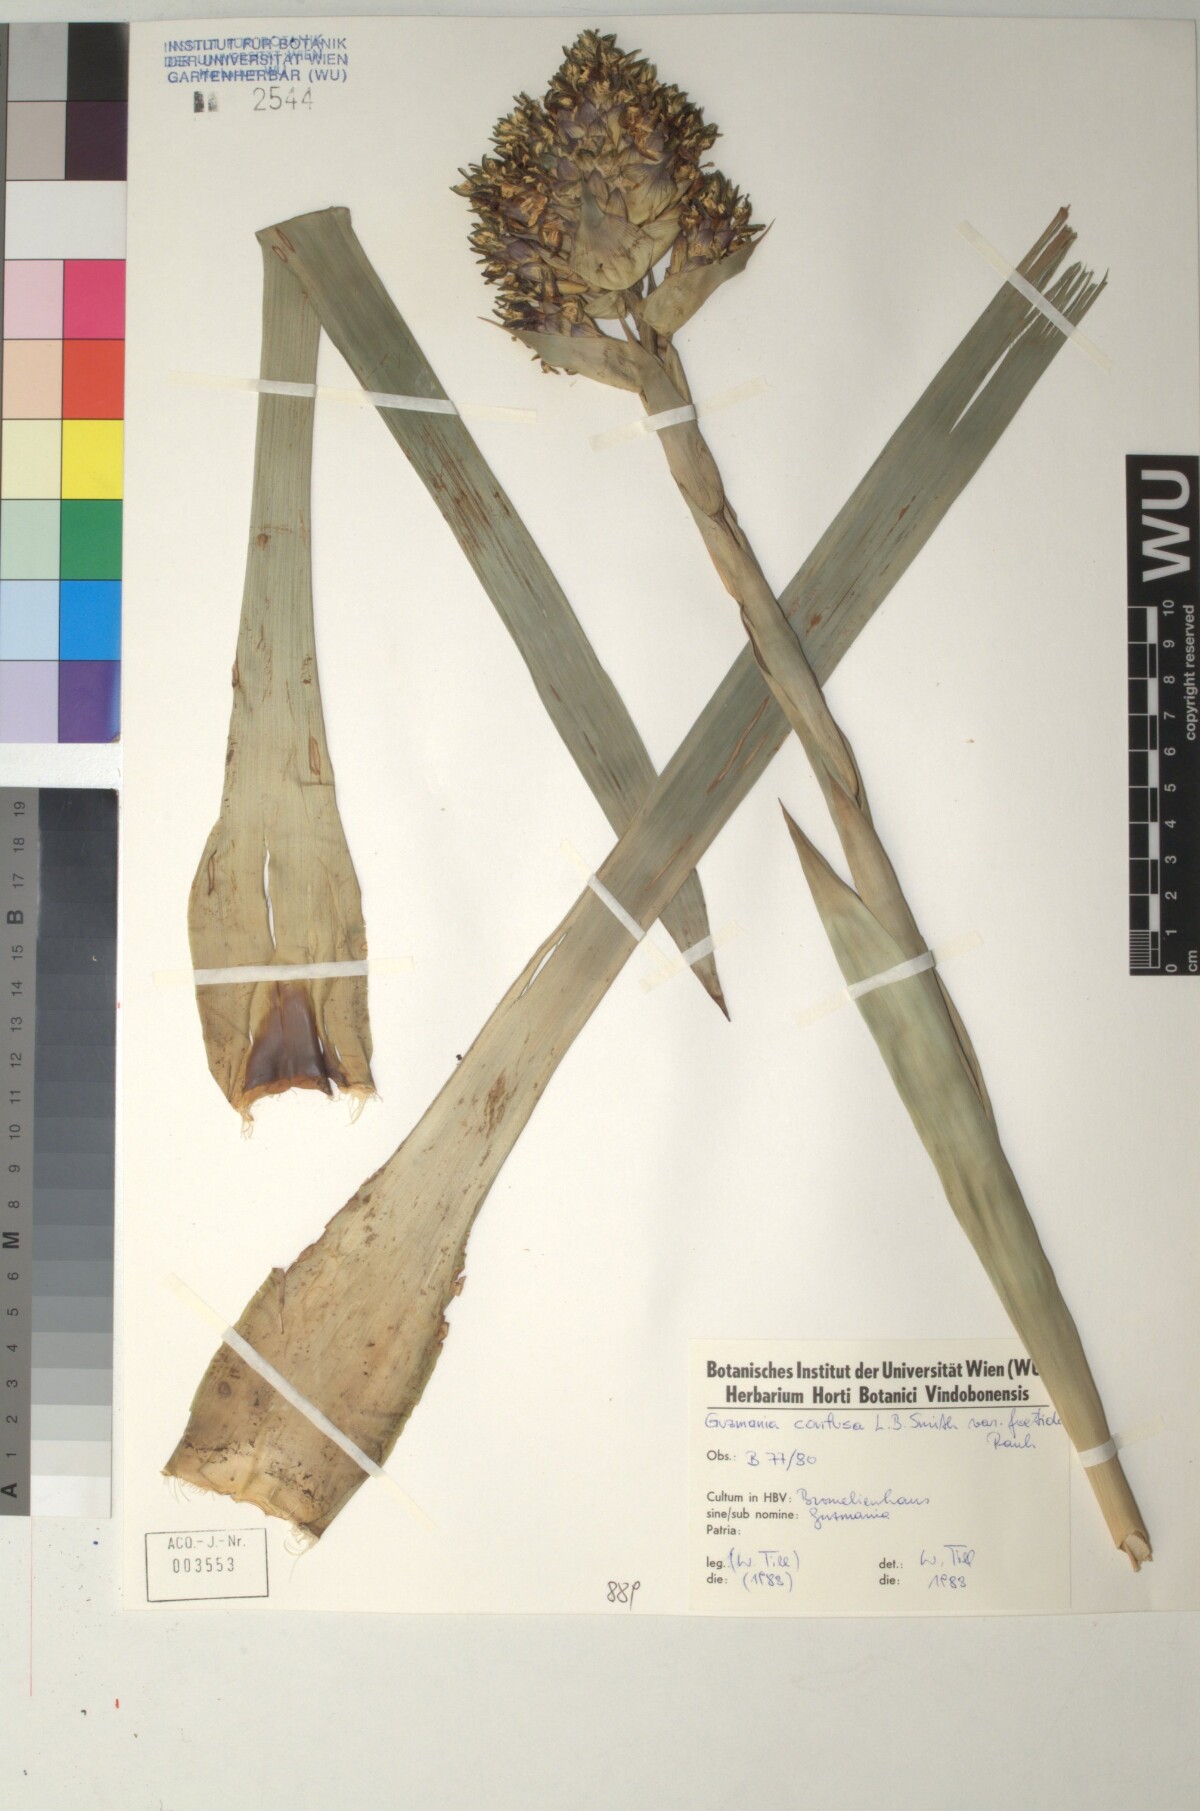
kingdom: Plantae
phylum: Tracheophyta
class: Liliopsida
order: Poales
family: Bromeliaceae
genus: Guzmania
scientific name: Guzmania confusa
